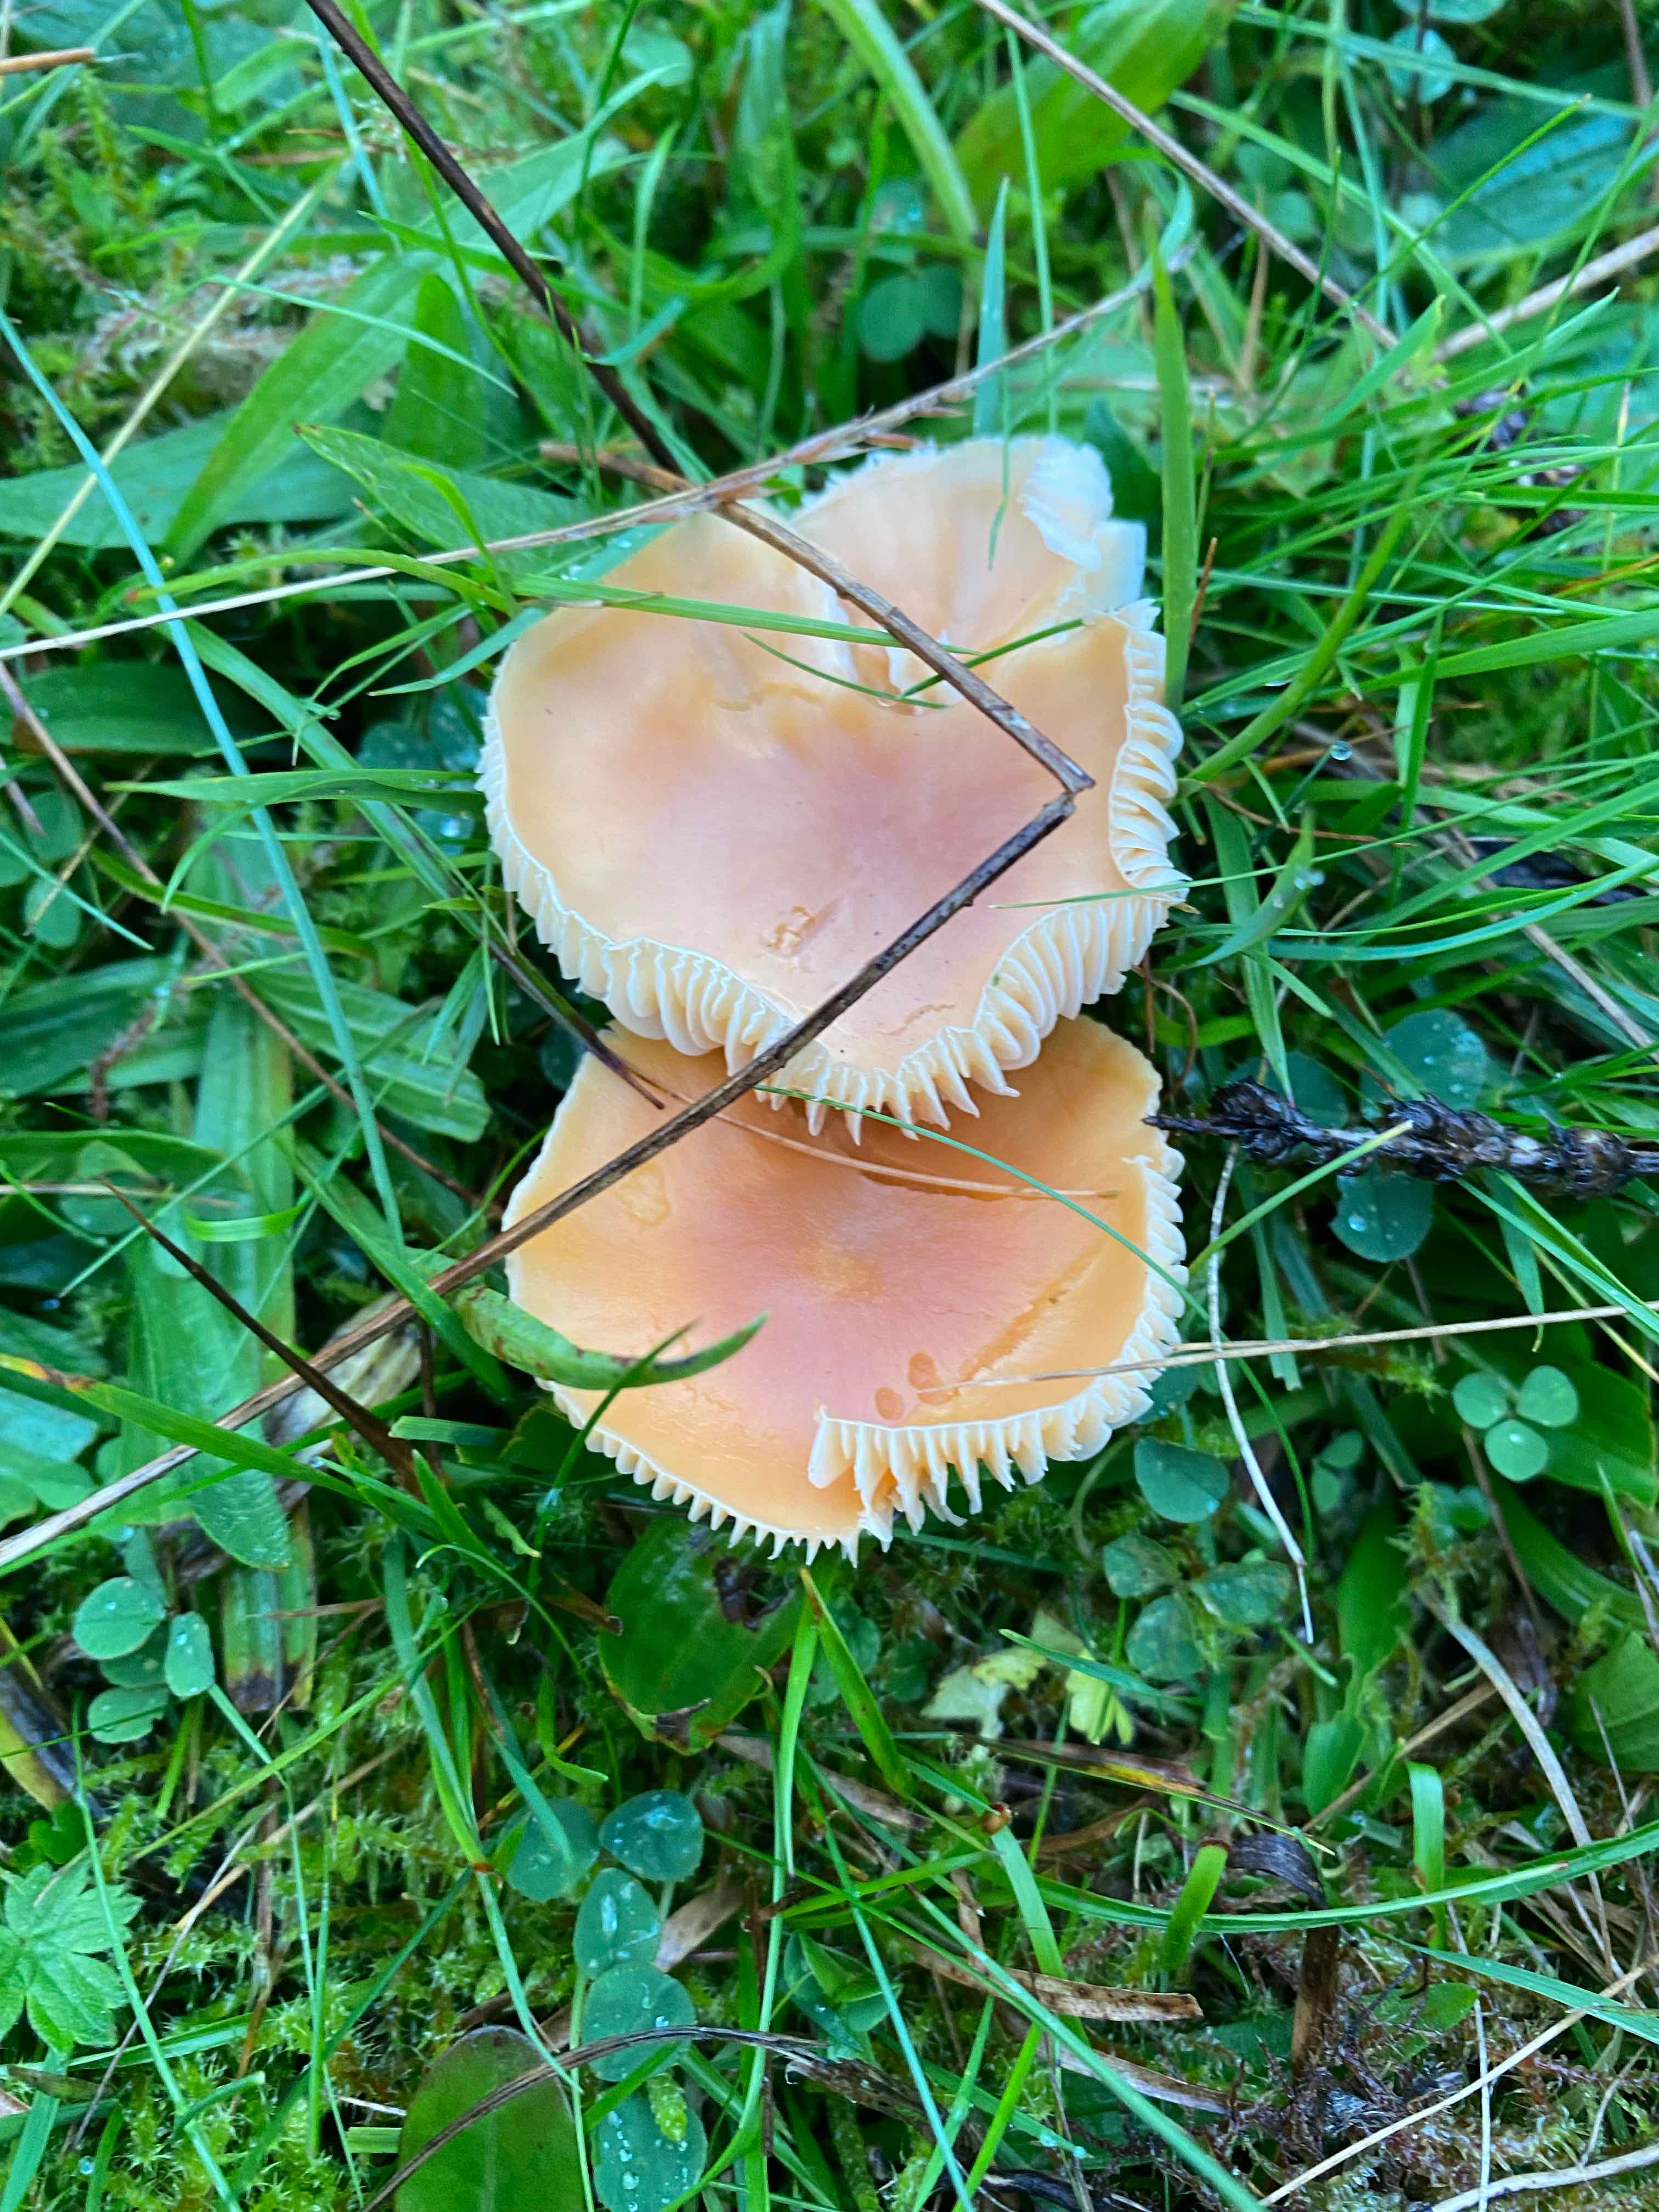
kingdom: Fungi
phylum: Basidiomycota
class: Agaricomycetes
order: Agaricales
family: Hygrophoraceae
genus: Cuphophyllus
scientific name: Cuphophyllus pratensis
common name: eng-vokshat
